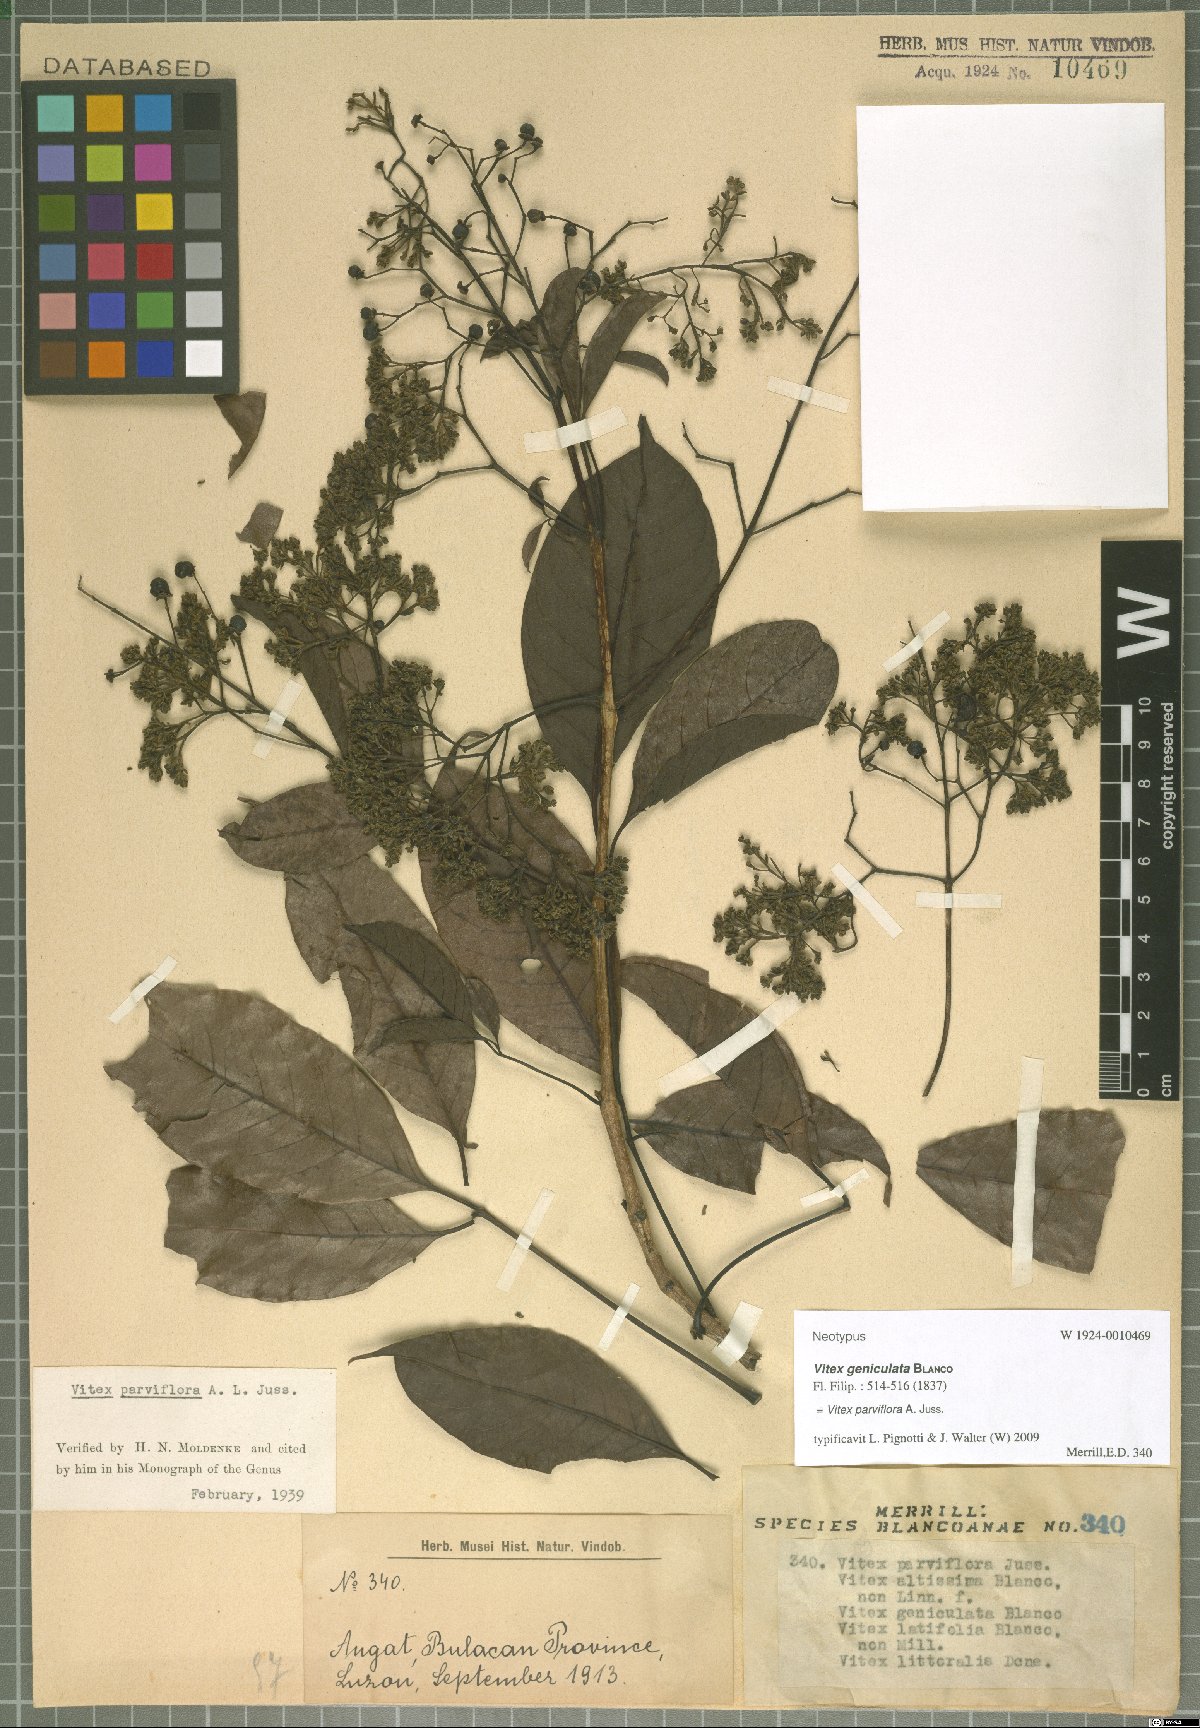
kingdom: Plantae
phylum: Tracheophyta
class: Magnoliopsida
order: Lamiales
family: Lamiaceae
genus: Vitex
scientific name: Vitex parviflora
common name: Smallflower chastetree
